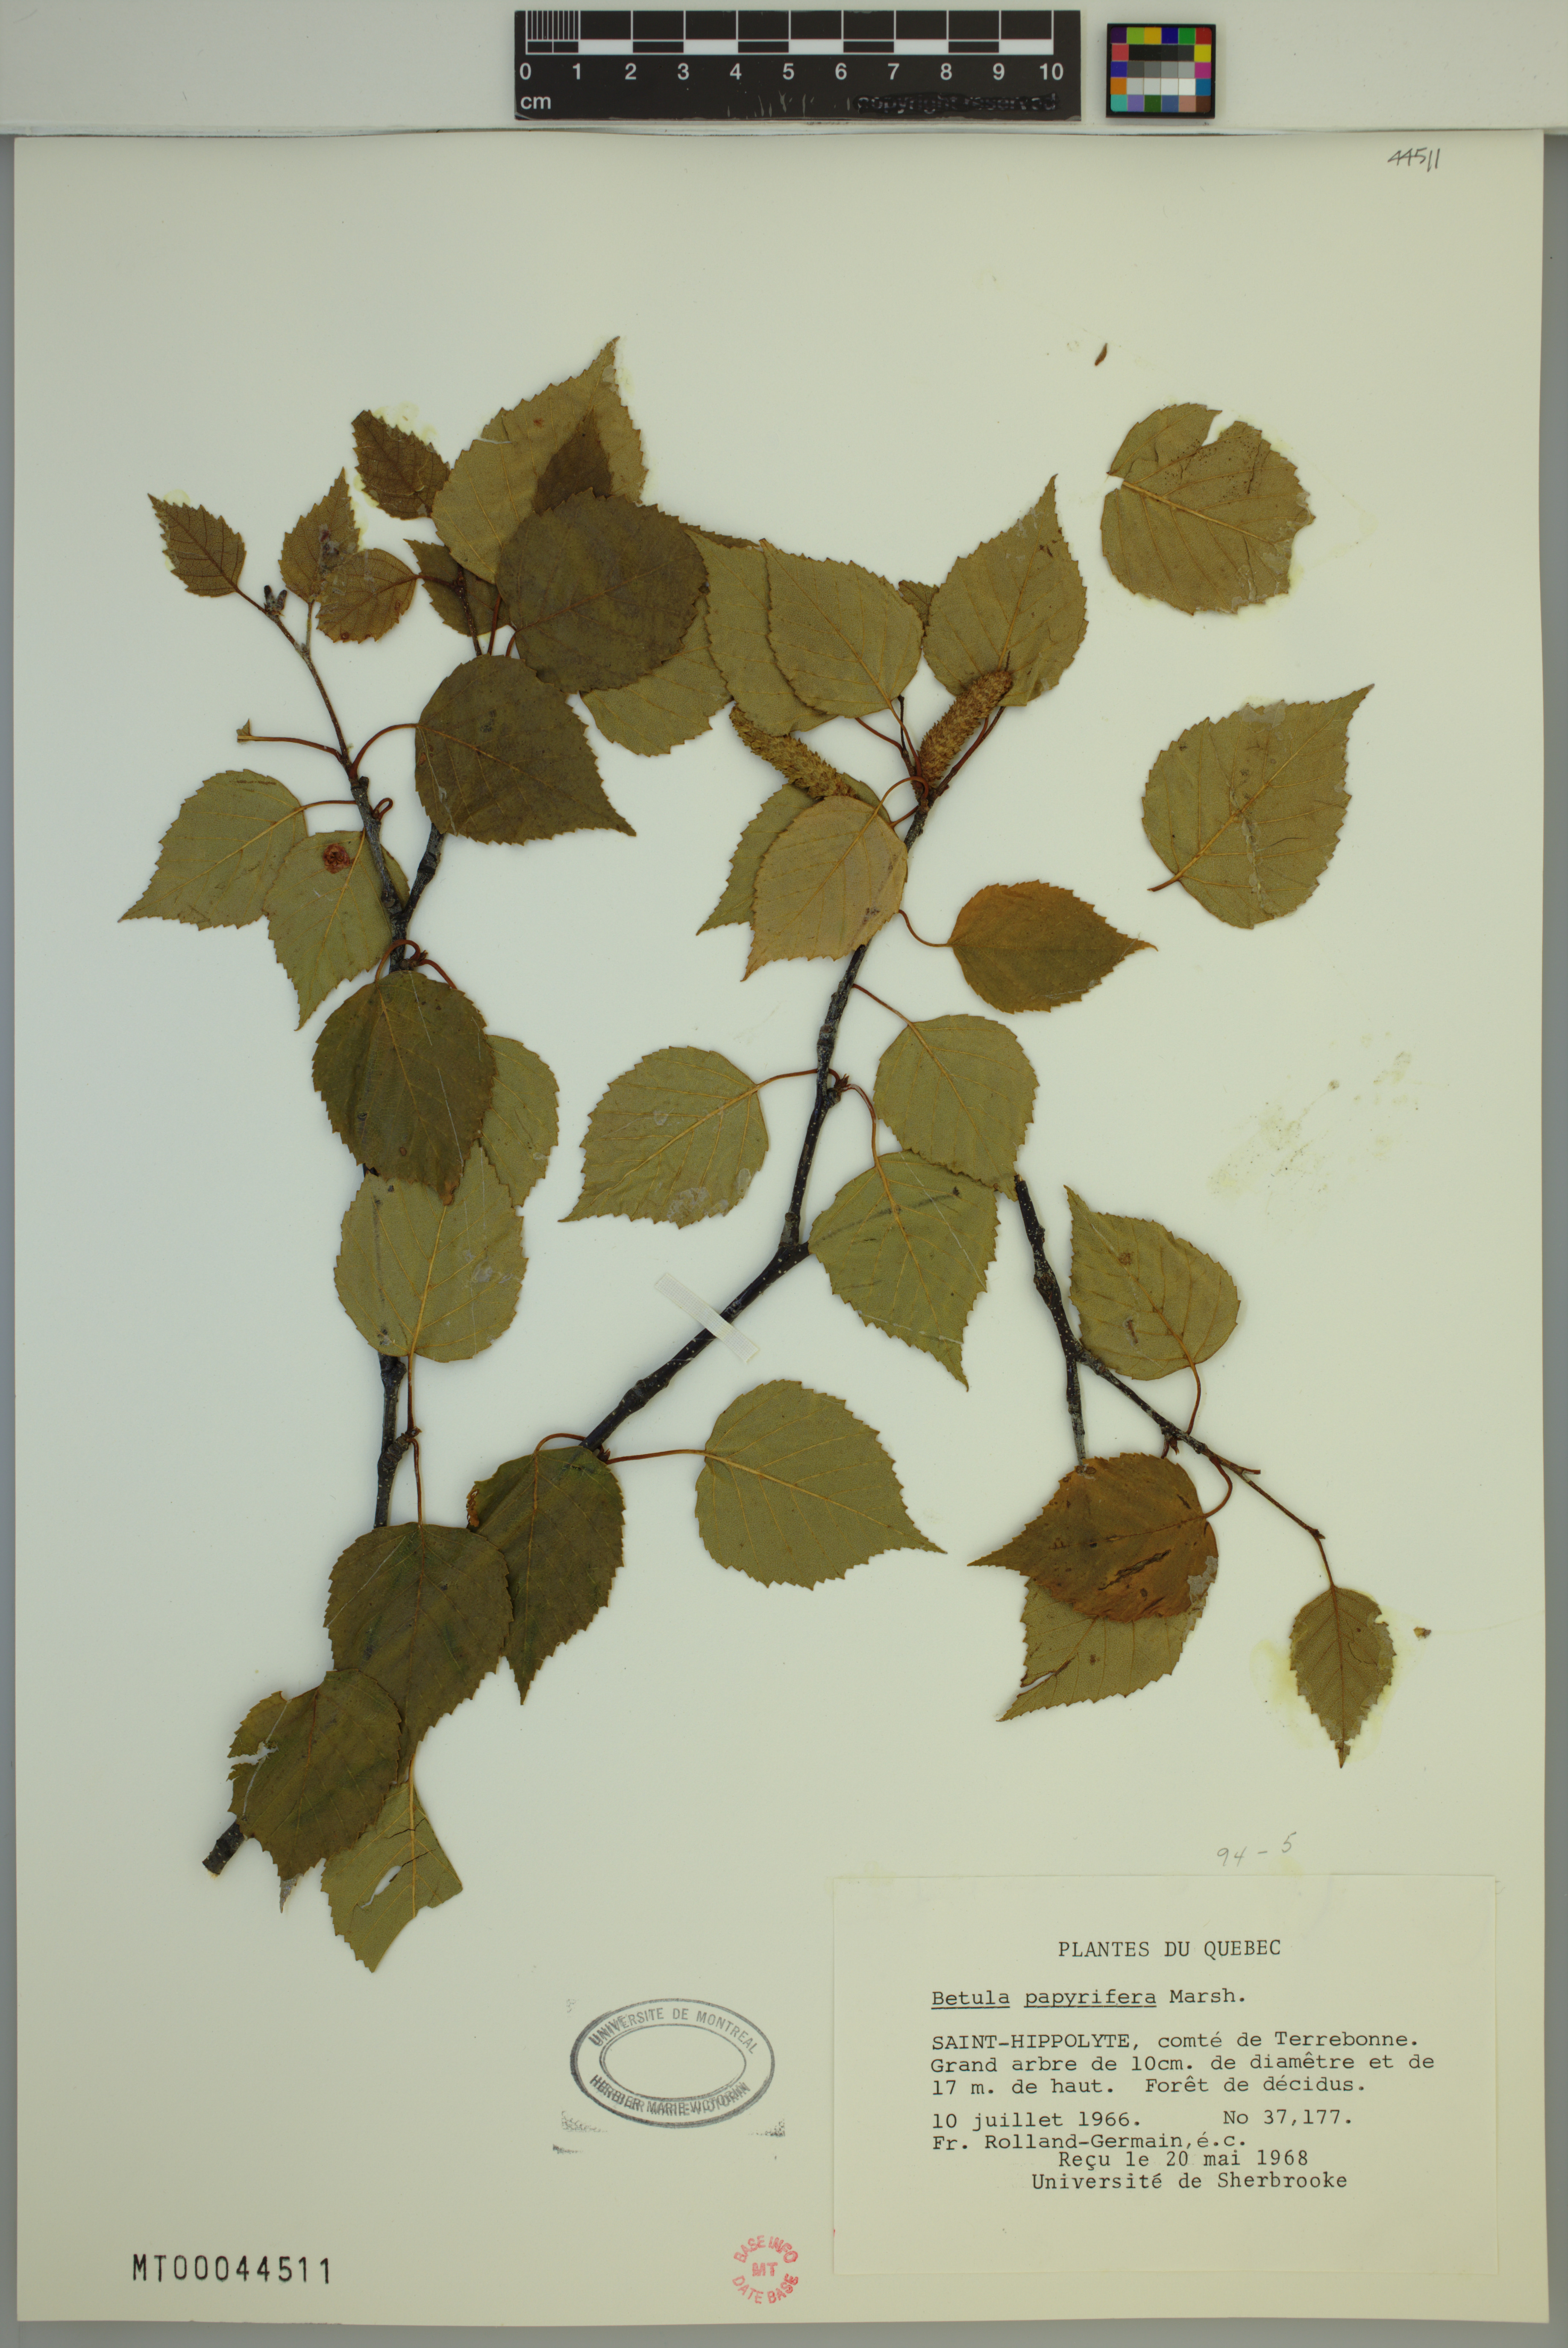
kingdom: Plantae
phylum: Tracheophyta
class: Magnoliopsida
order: Fagales
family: Betulaceae
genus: Betula
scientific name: Betula papyrifera
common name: Paper birch
